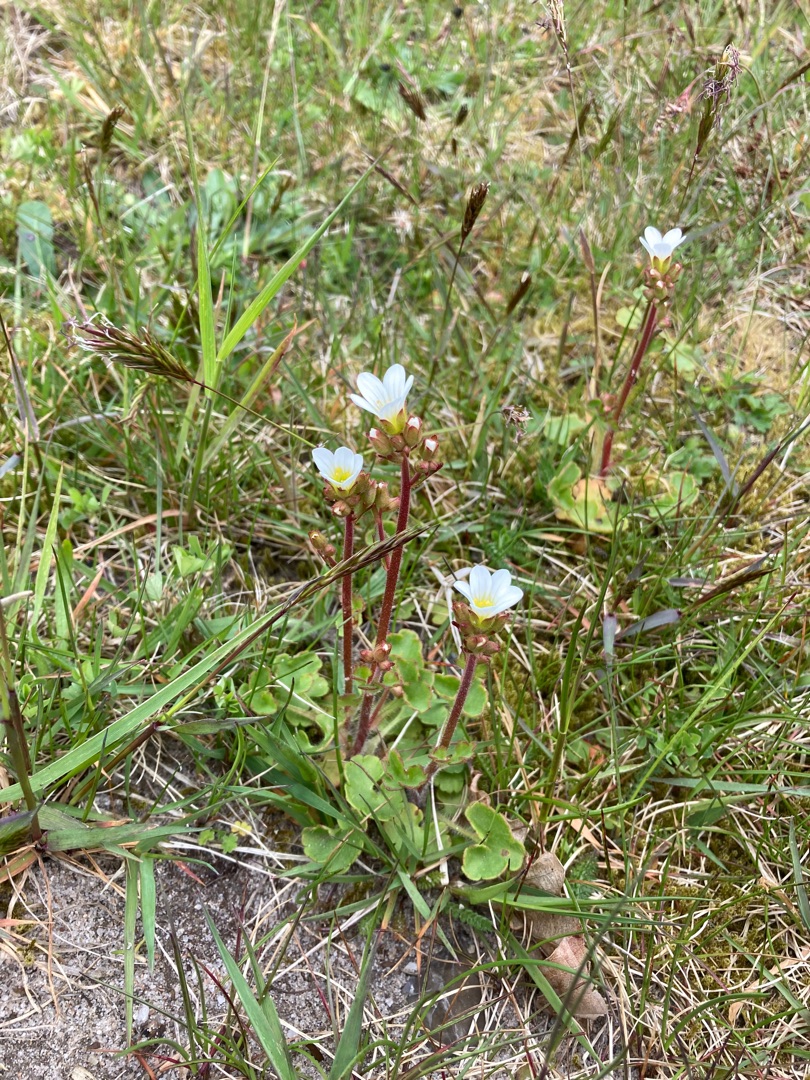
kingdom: Plantae
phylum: Tracheophyta
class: Magnoliopsida
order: Saxifragales
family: Saxifragaceae
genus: Saxifraga
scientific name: Saxifraga granulata
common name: Kornet stenbræk
